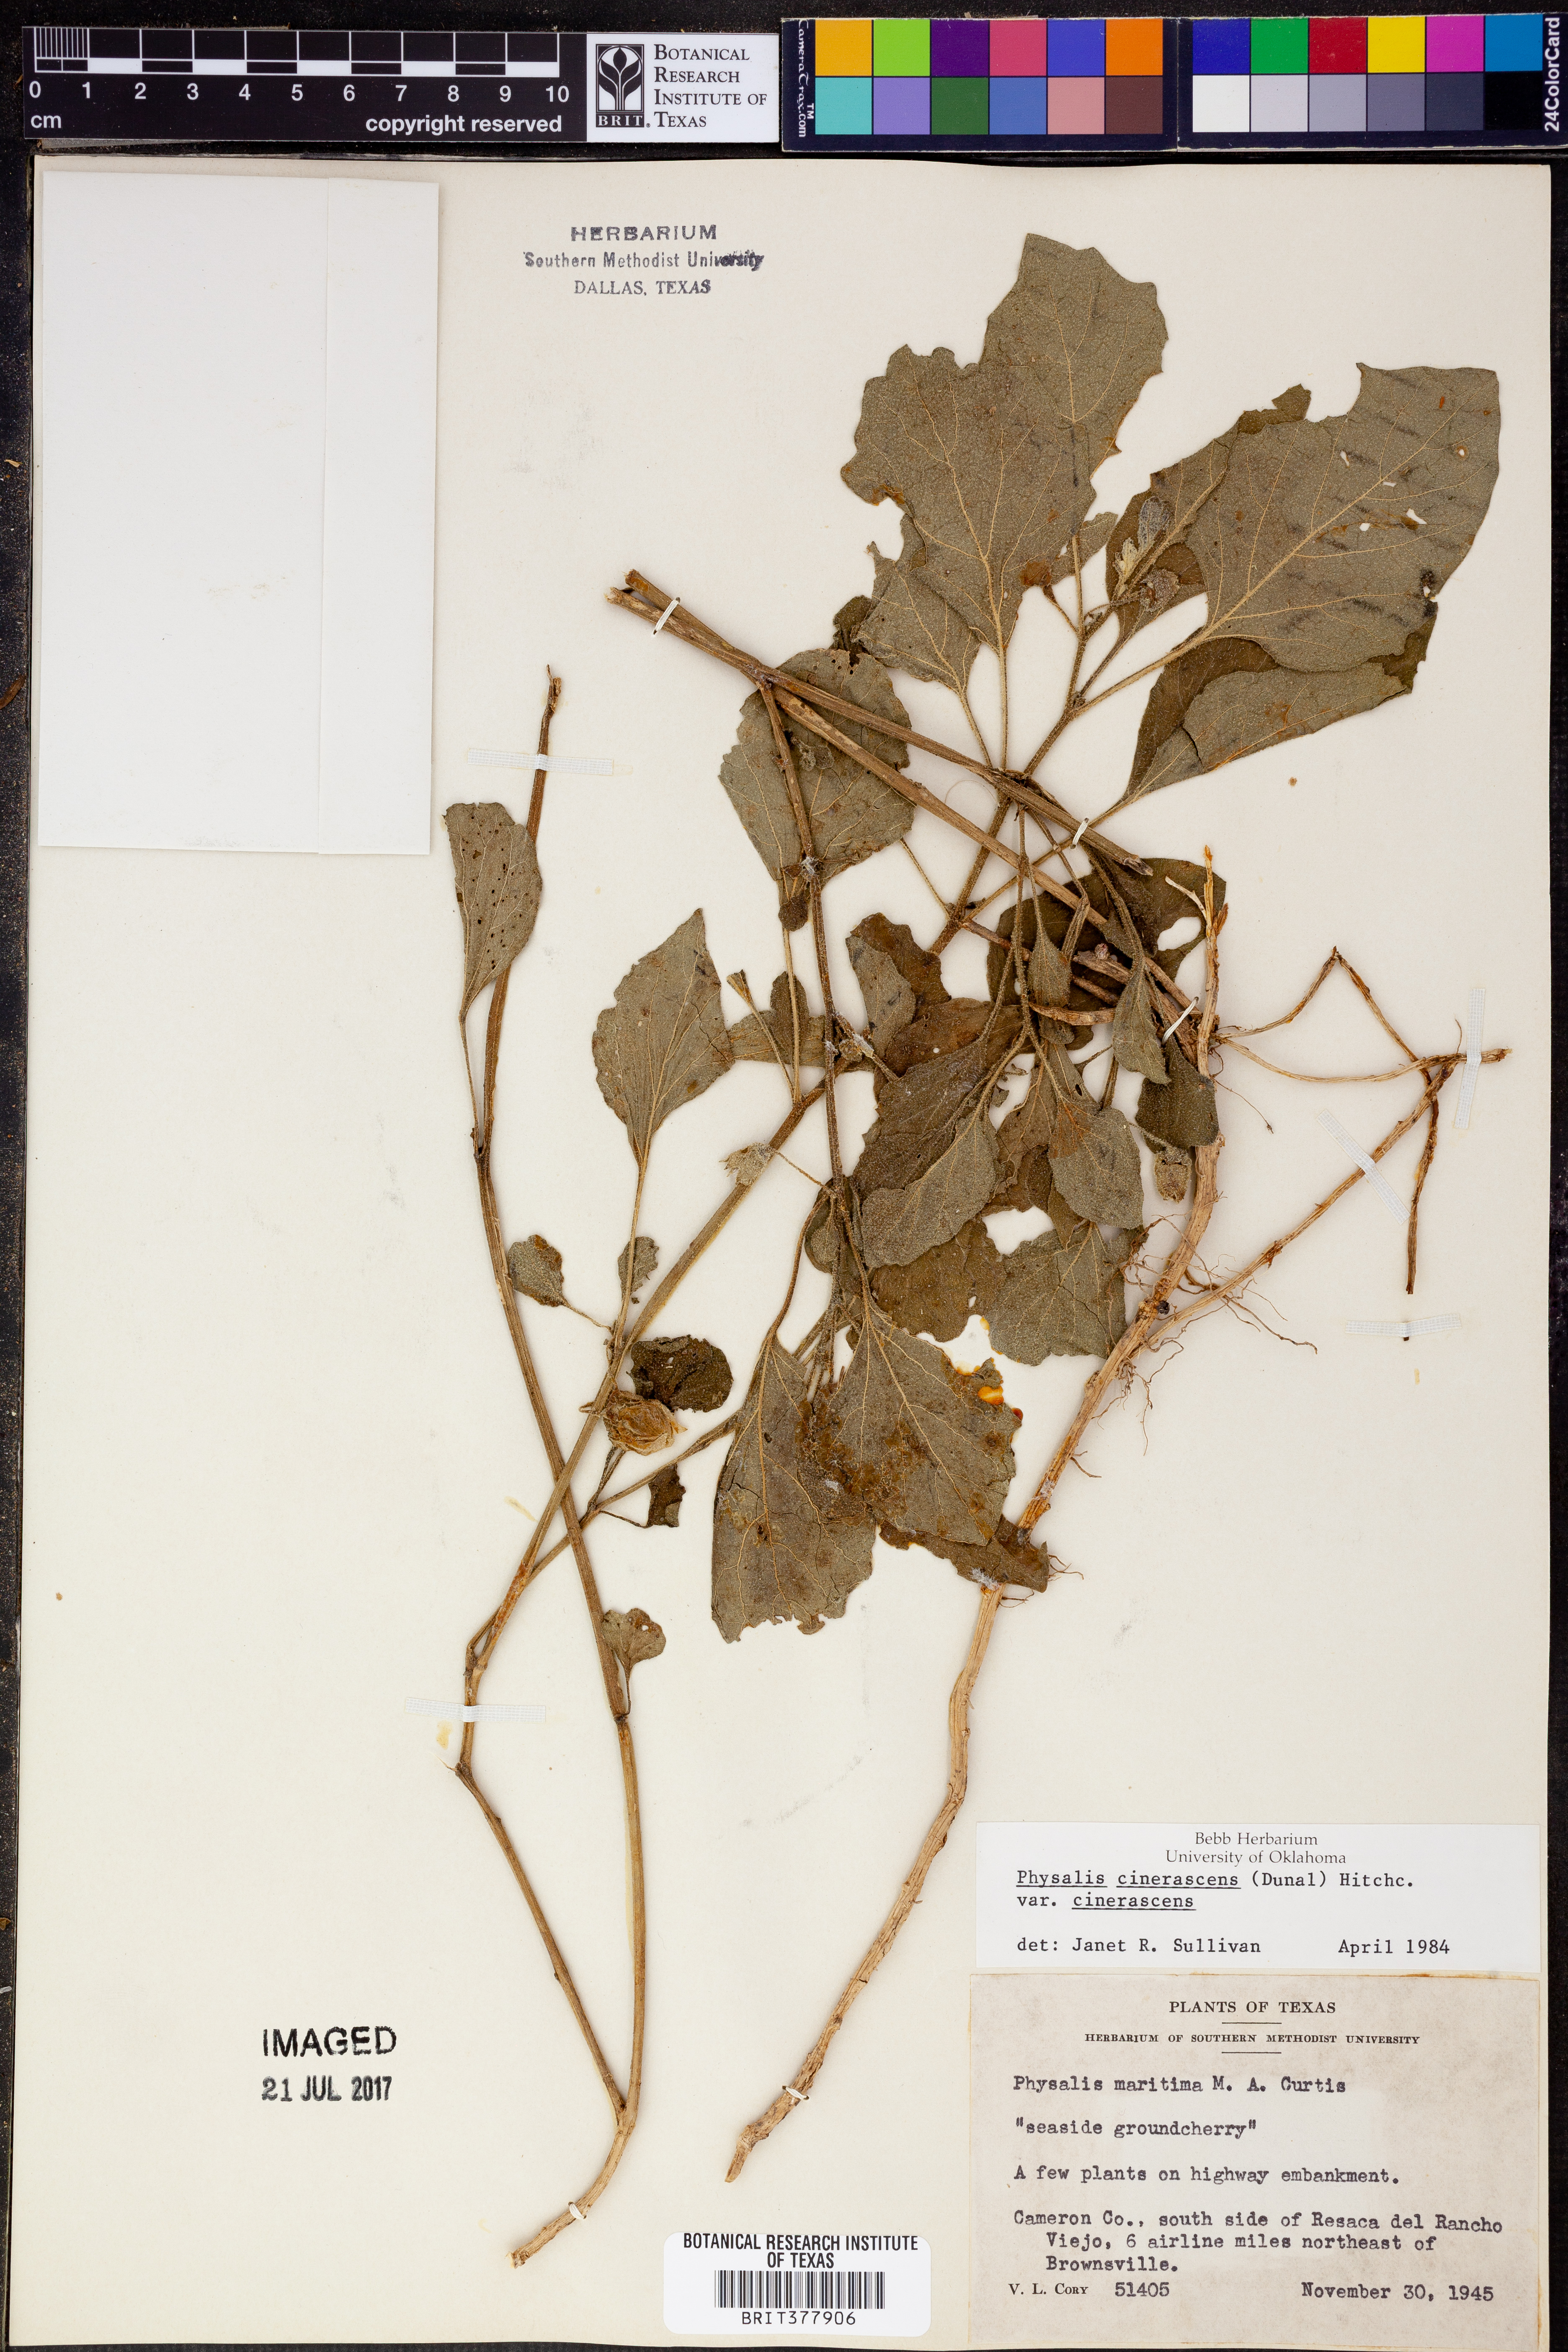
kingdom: Plantae
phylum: Tracheophyta
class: Magnoliopsida
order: Solanales
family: Solanaceae
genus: Physalis
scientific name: Physalis cinerascens
